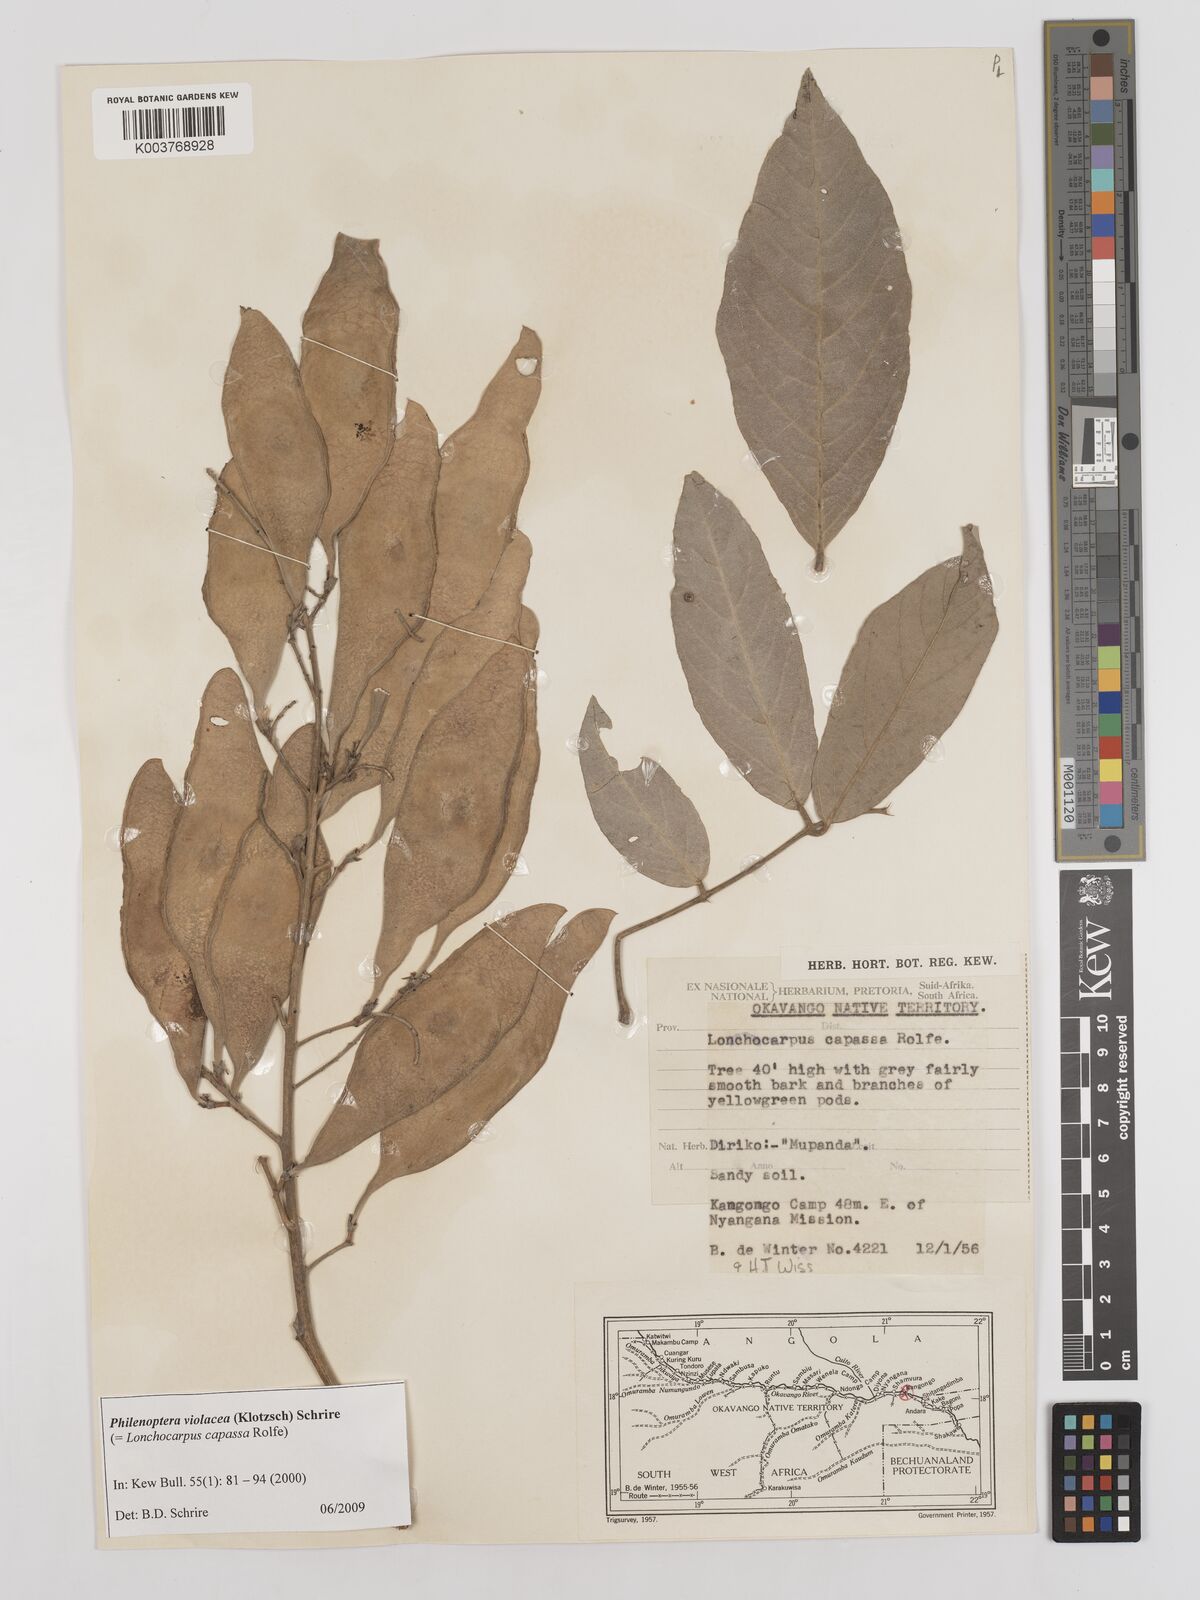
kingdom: Plantae
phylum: Tracheophyta
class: Magnoliopsida
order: Fabales
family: Fabaceae
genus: Philenoptera
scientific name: Philenoptera violacea
